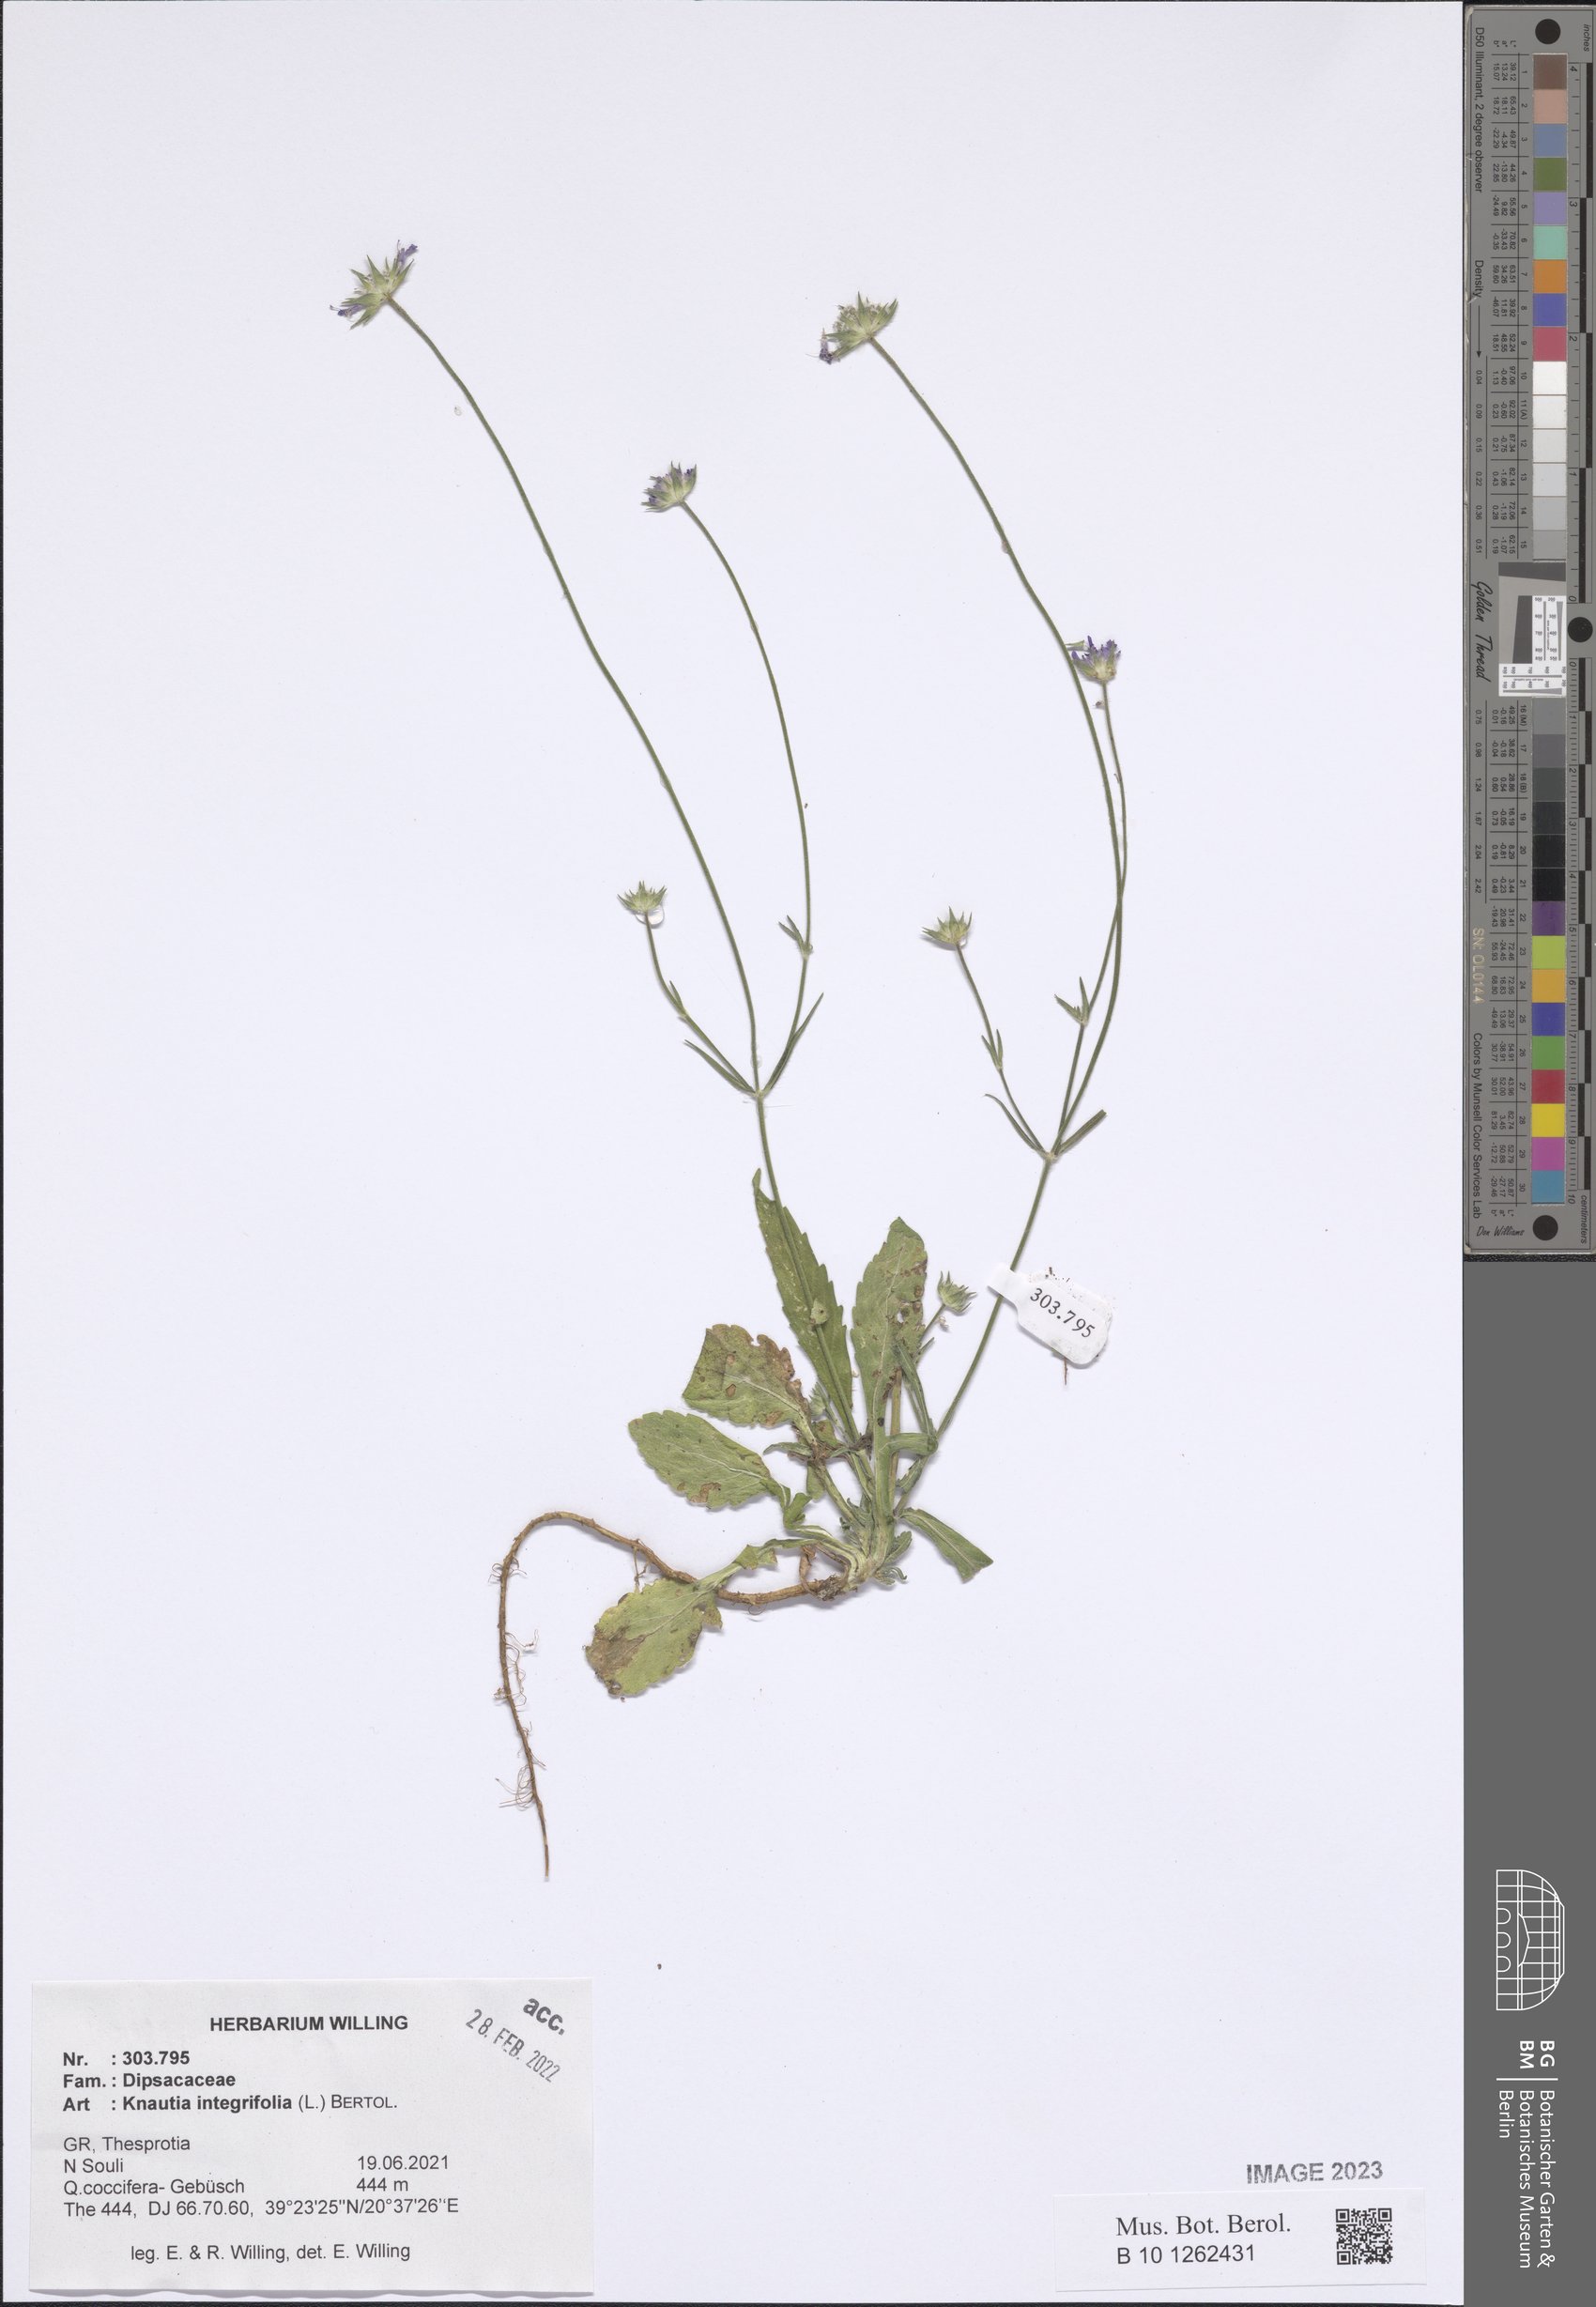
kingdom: Plantae
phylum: Tracheophyta
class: Magnoliopsida
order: Dipsacales
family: Caprifoliaceae
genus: Knautia
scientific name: Knautia integrifolia
